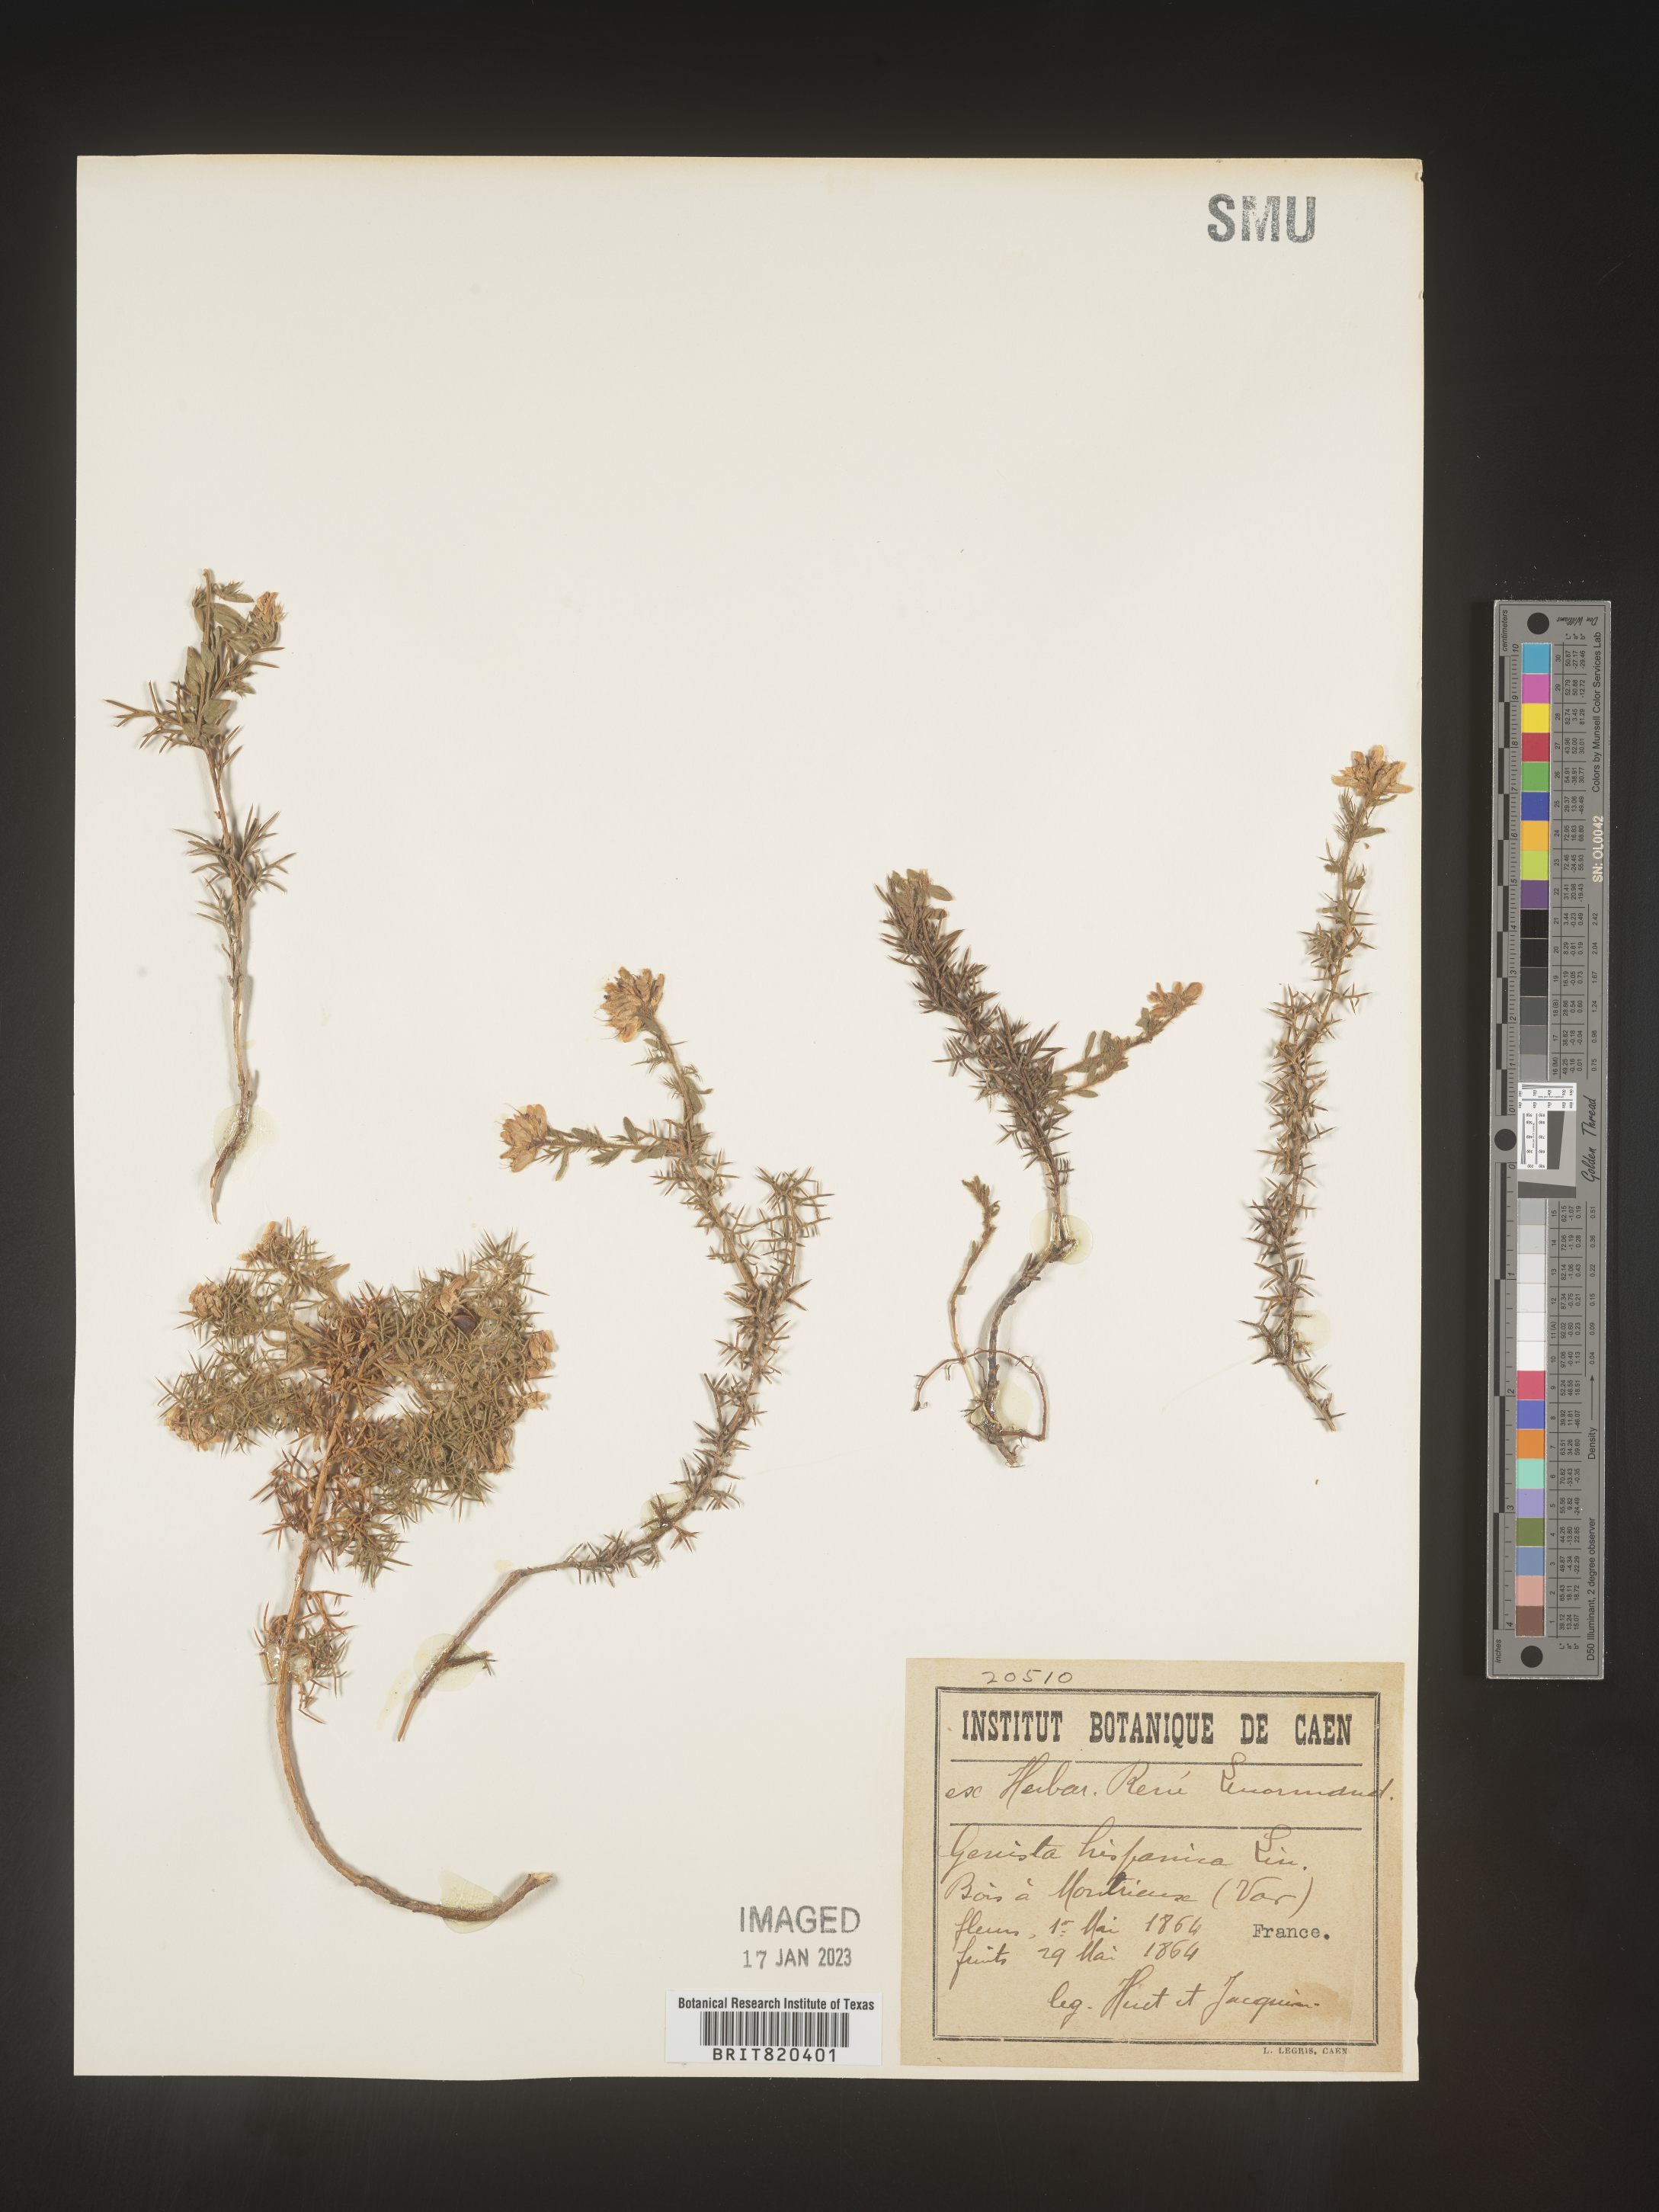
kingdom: Plantae
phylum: Tracheophyta
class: Magnoliopsida
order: Fabales
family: Fabaceae
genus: Genista
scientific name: Genista
